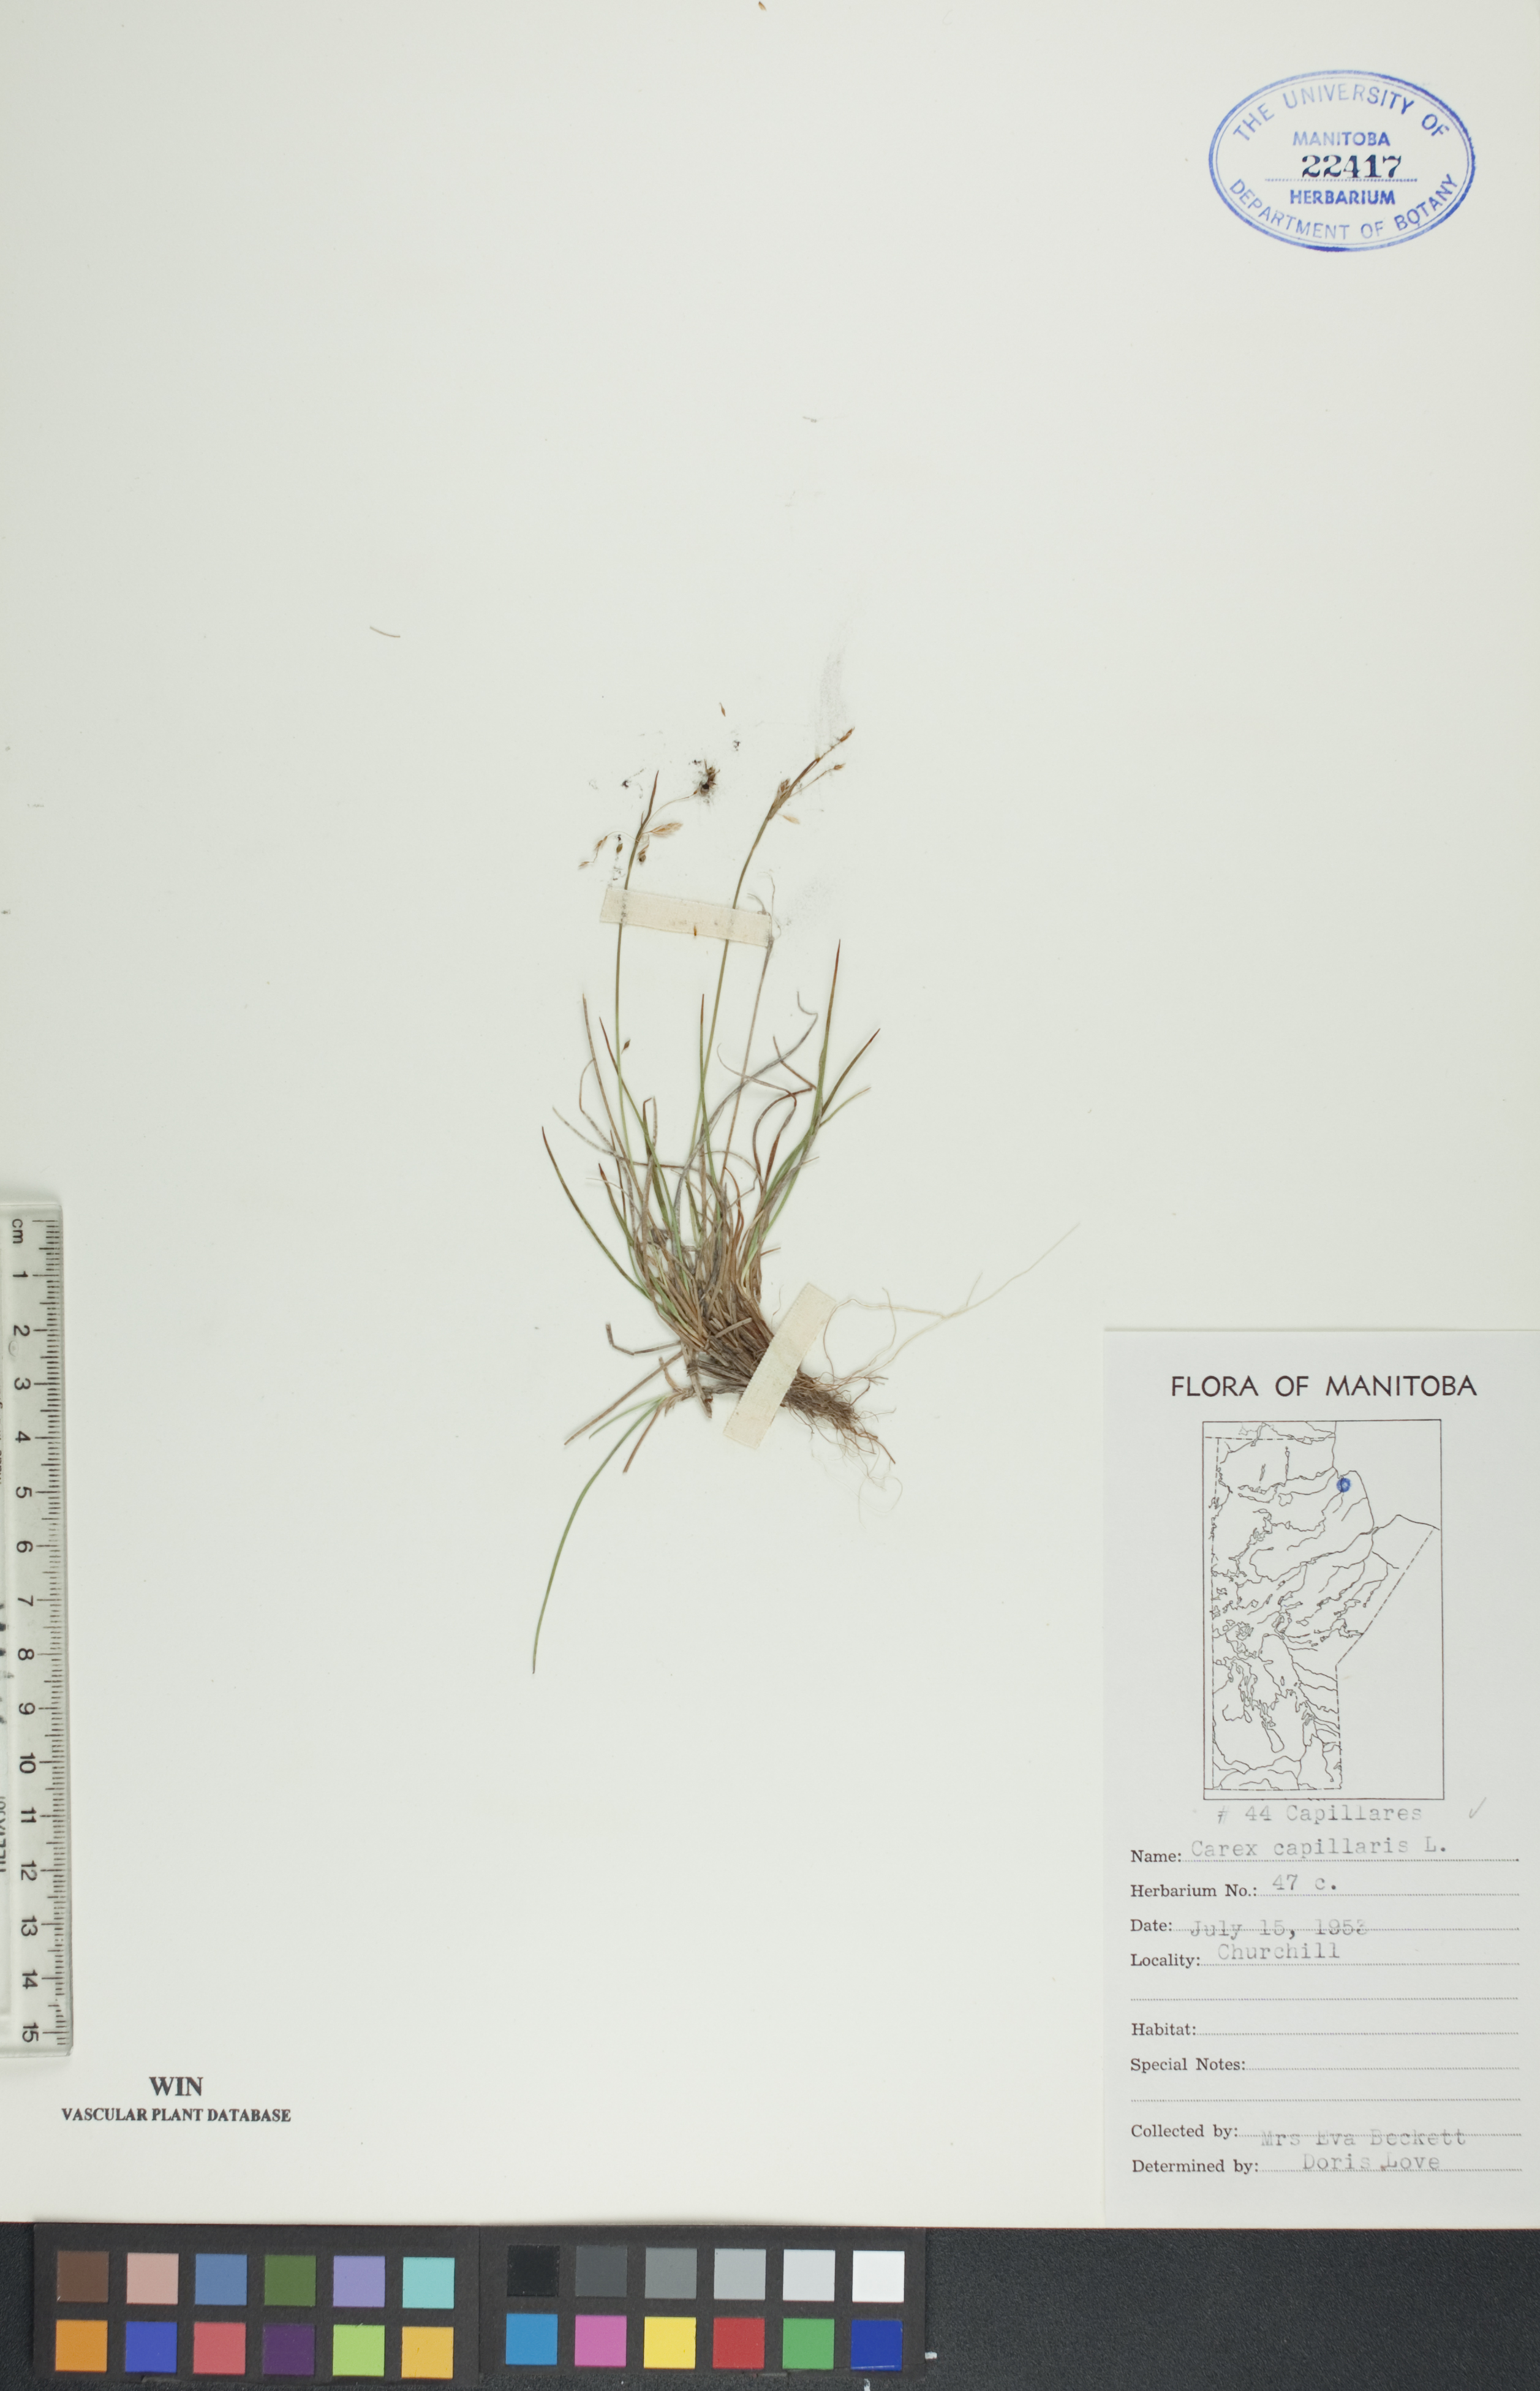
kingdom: Plantae
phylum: Tracheophyta
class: Liliopsida
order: Poales
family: Cyperaceae
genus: Carex
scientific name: Carex capillaris
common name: Hair sedge
